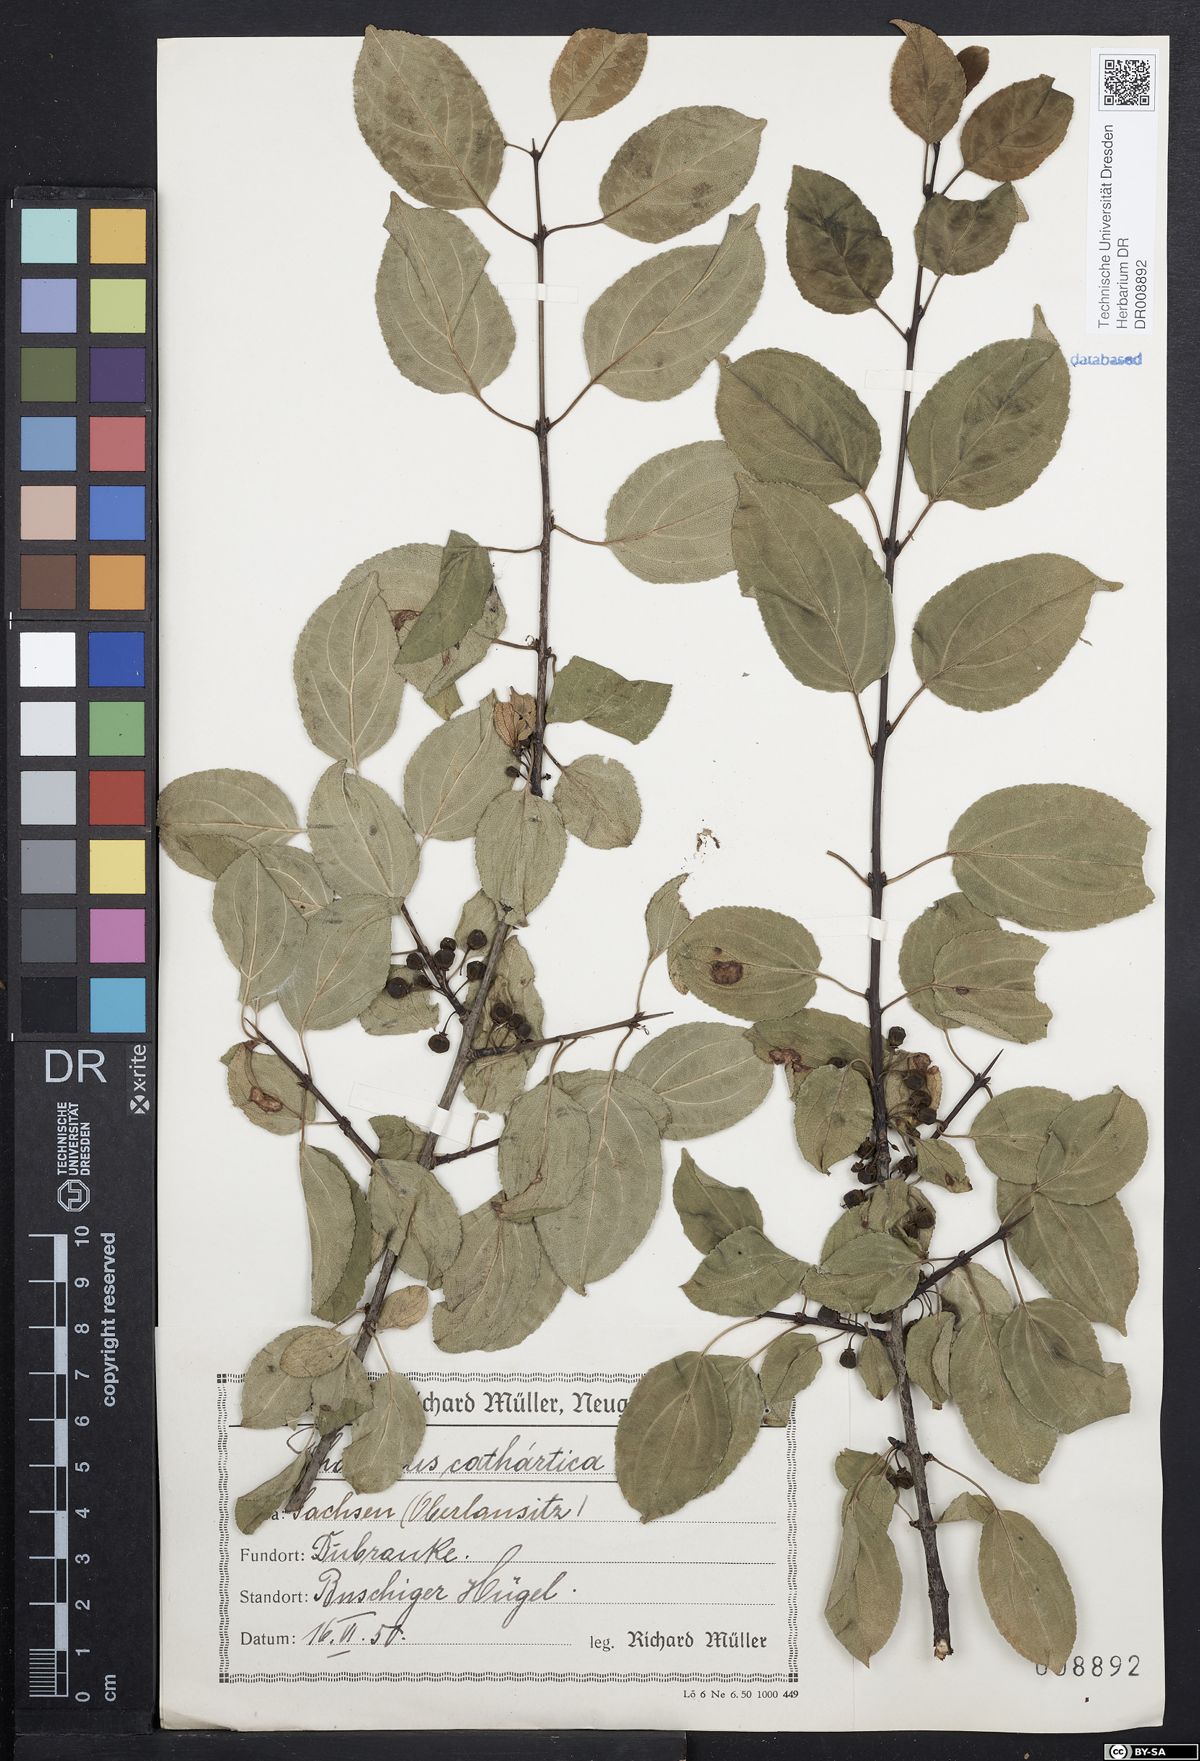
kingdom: Plantae
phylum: Tracheophyta
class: Magnoliopsida
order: Rosales
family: Rhamnaceae
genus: Rhamnus
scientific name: Rhamnus cathartica
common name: Common buckthorn
